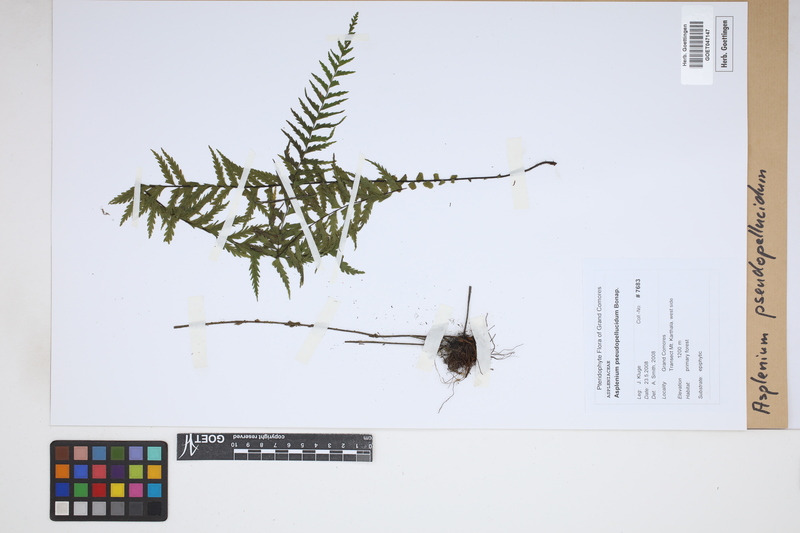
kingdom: Plantae
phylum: Tracheophyta
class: Polypodiopsida
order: Polypodiales
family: Aspleniaceae
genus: Asplenium
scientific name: Asplenium crinulosum
